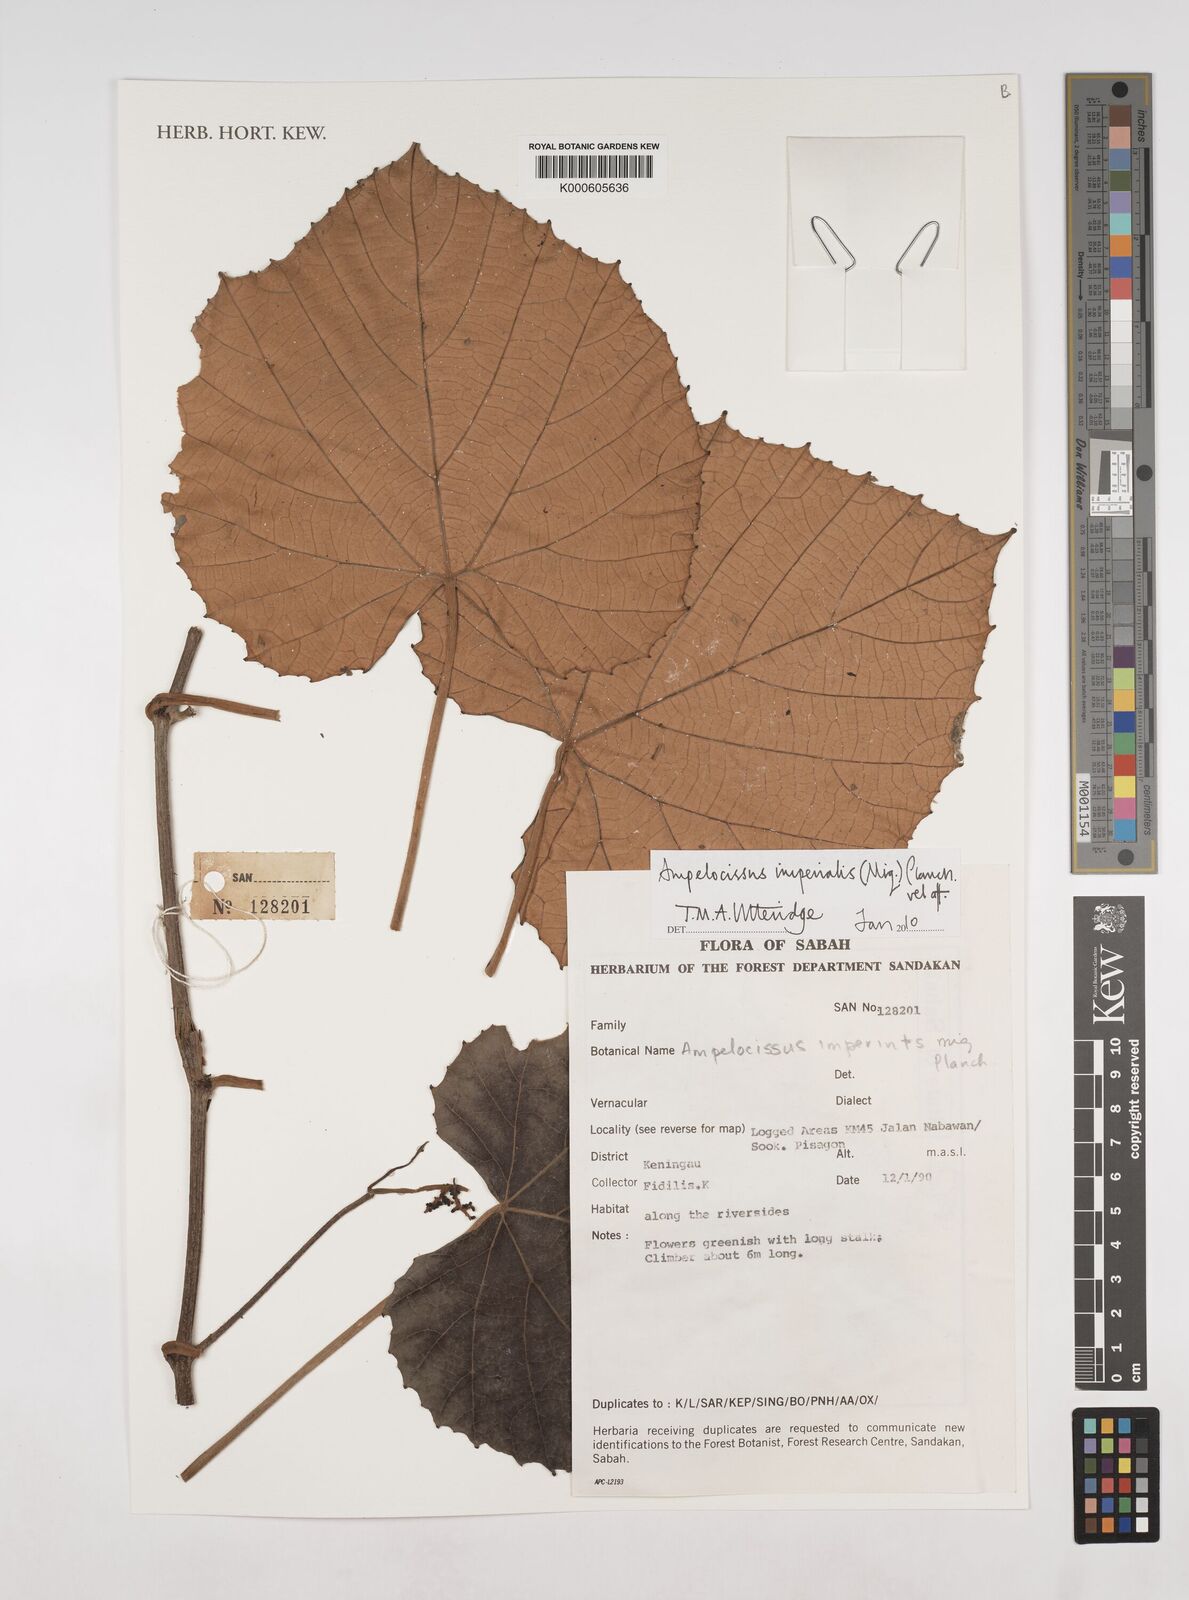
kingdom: Plantae
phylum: Tracheophyta
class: Magnoliopsida
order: Vitales
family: Vitaceae
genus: Ampelocissus
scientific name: Ampelocissus imperialis
